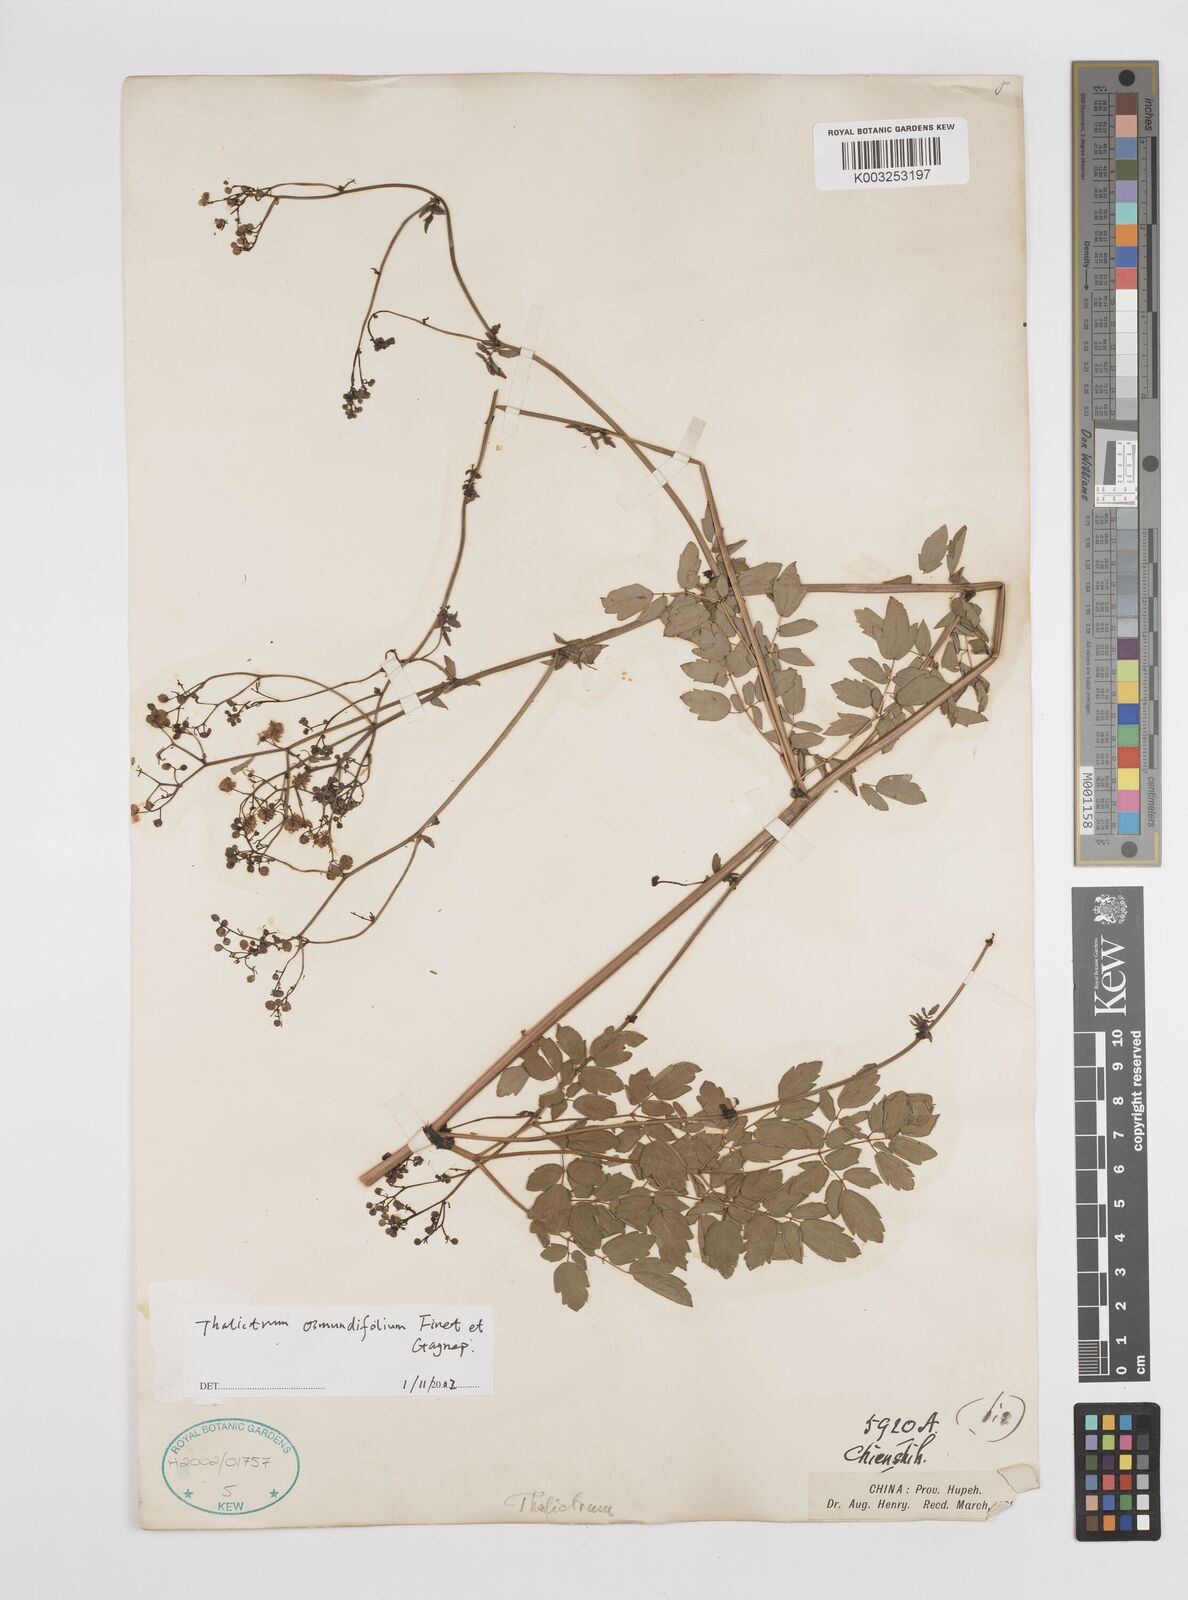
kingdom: Plantae
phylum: Tracheophyta
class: Magnoliopsida
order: Ranunculales
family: Ranunculaceae
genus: Thalictrum
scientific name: Thalictrum javanicum
